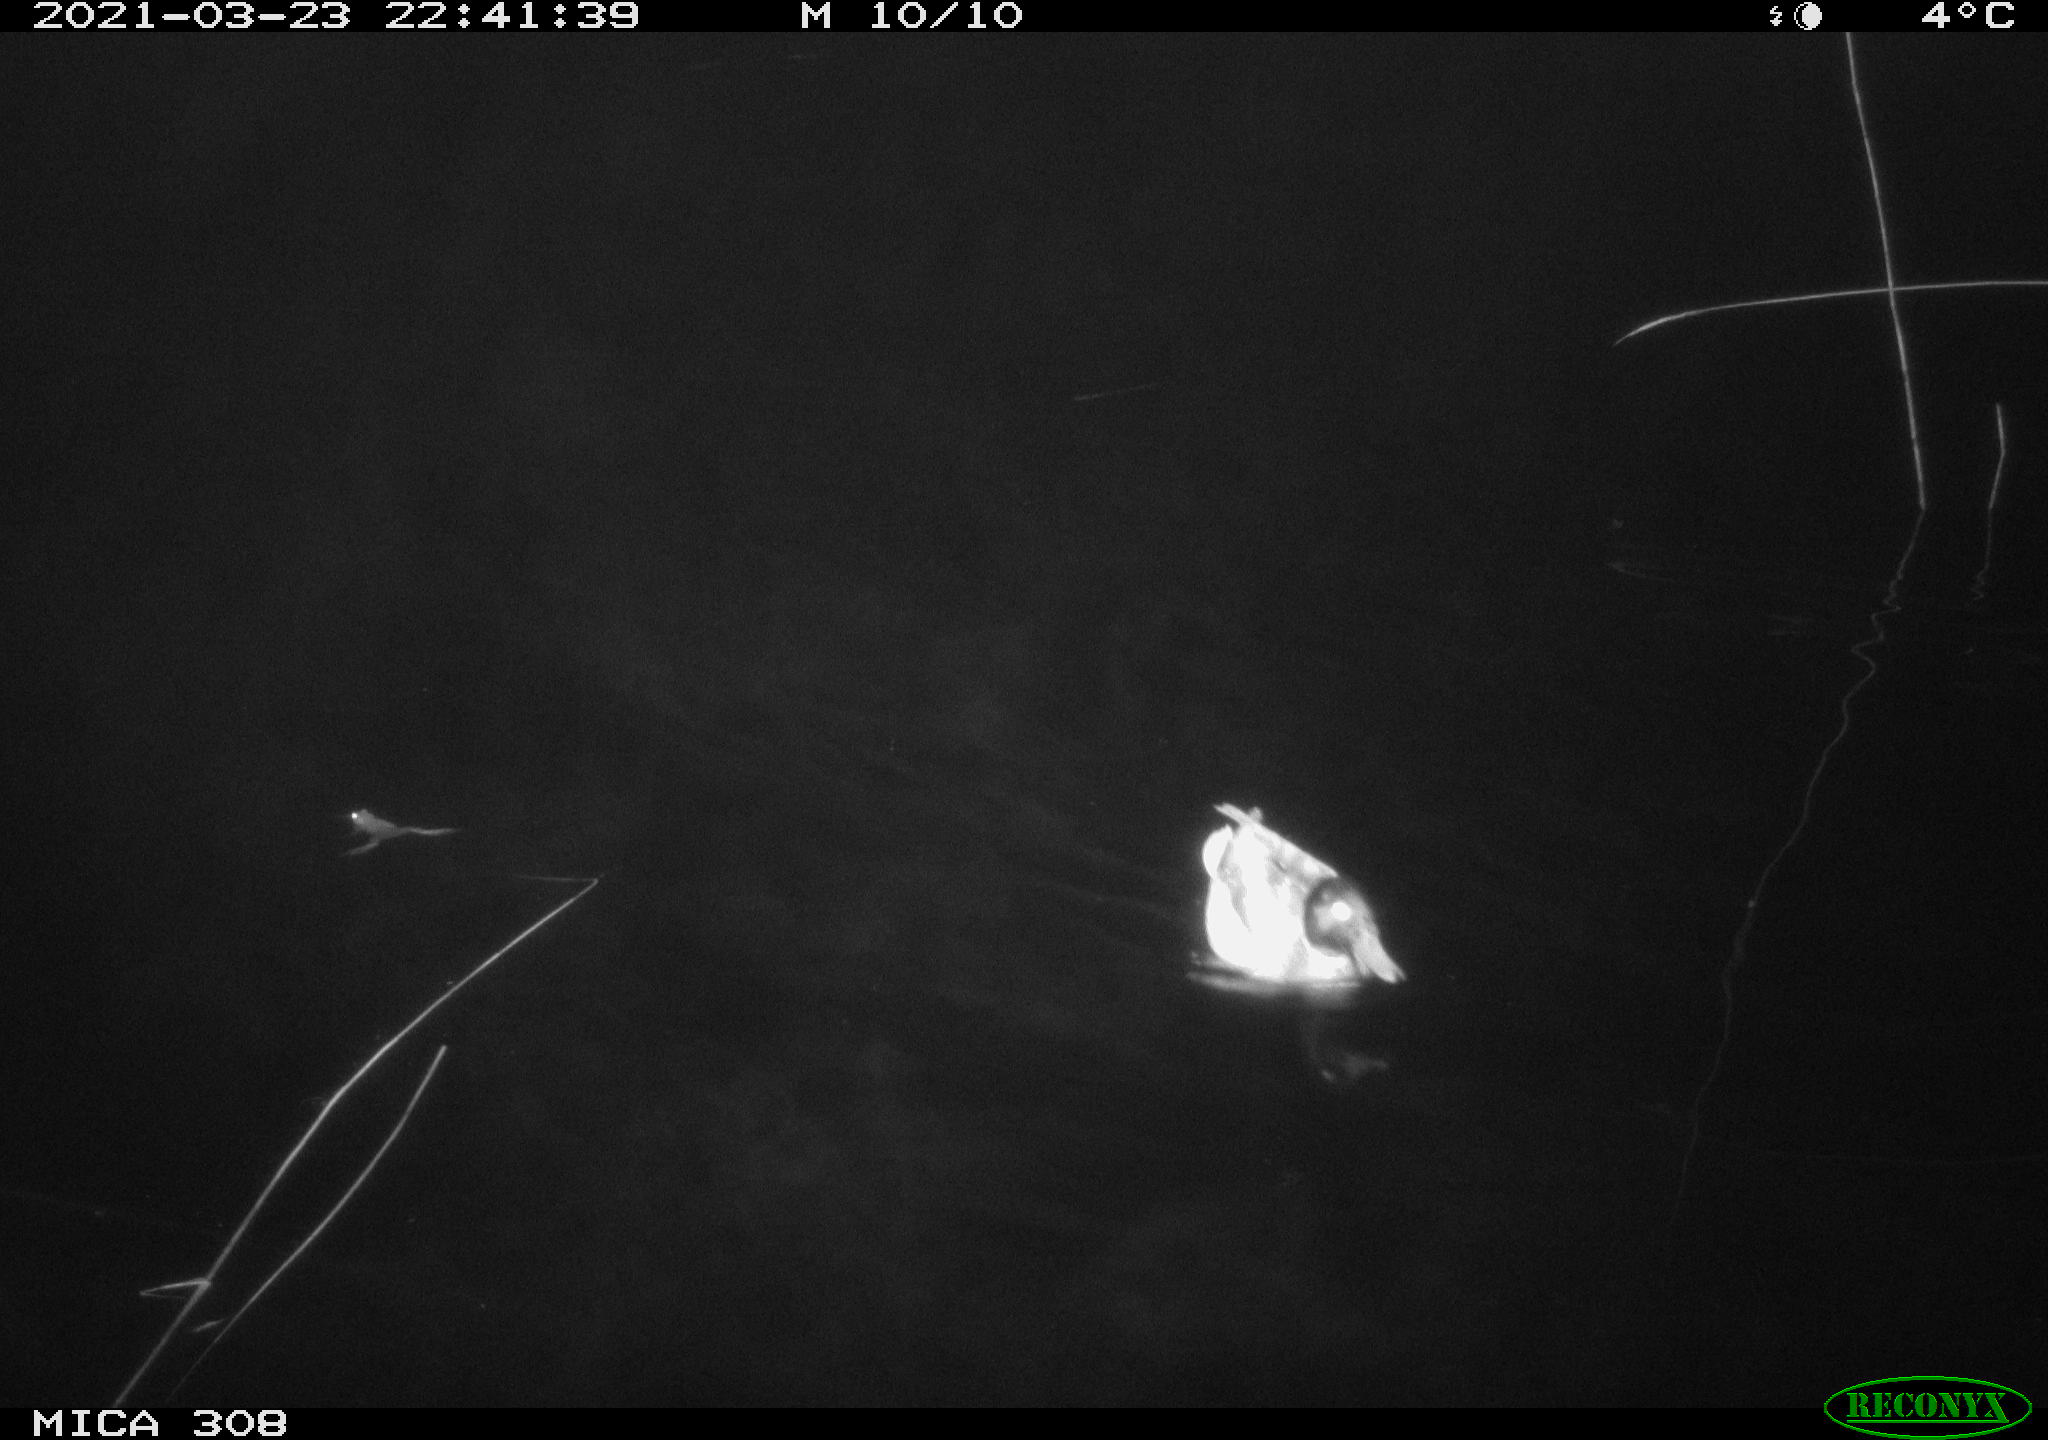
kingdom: Animalia
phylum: Chordata
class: Aves
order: Anseriformes
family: Anatidae
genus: Anas
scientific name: Anas platyrhynchos
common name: Mallard
